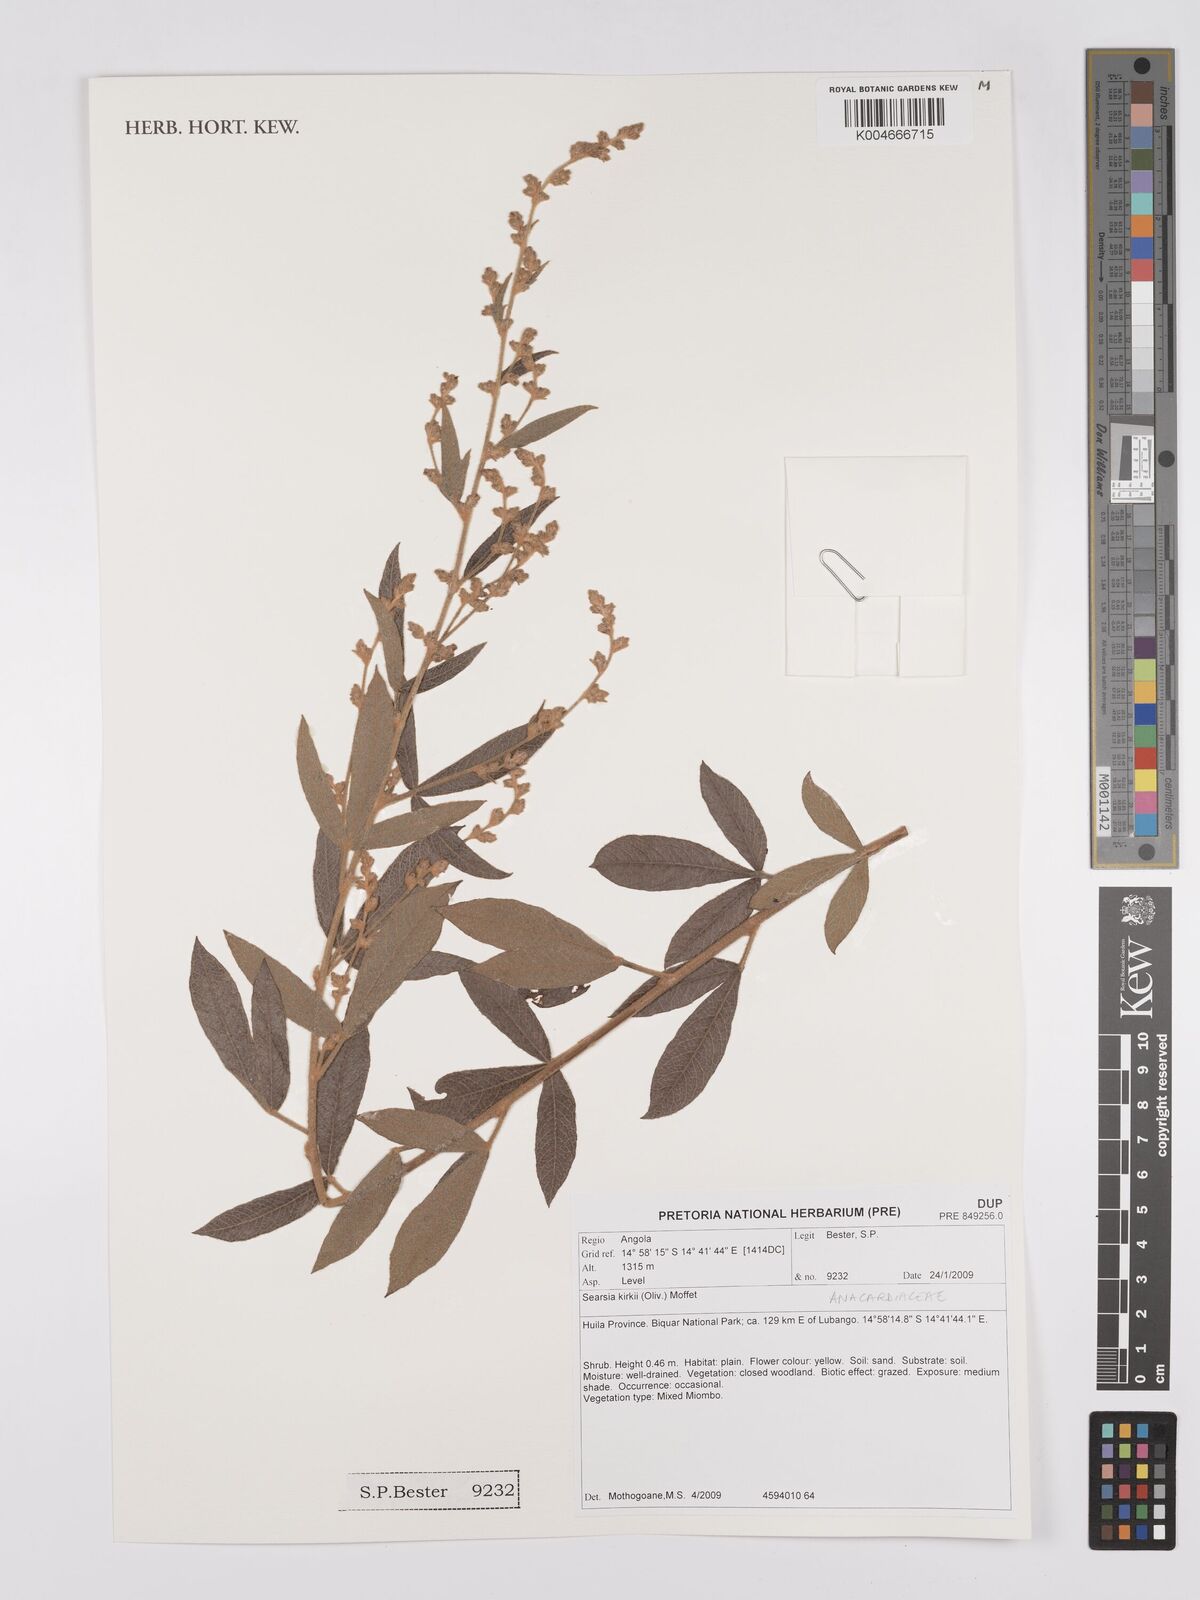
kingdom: Plantae
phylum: Tracheophyta
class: Magnoliopsida
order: Sapindales
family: Anacardiaceae
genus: Searsia
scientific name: Searsia kirkii
